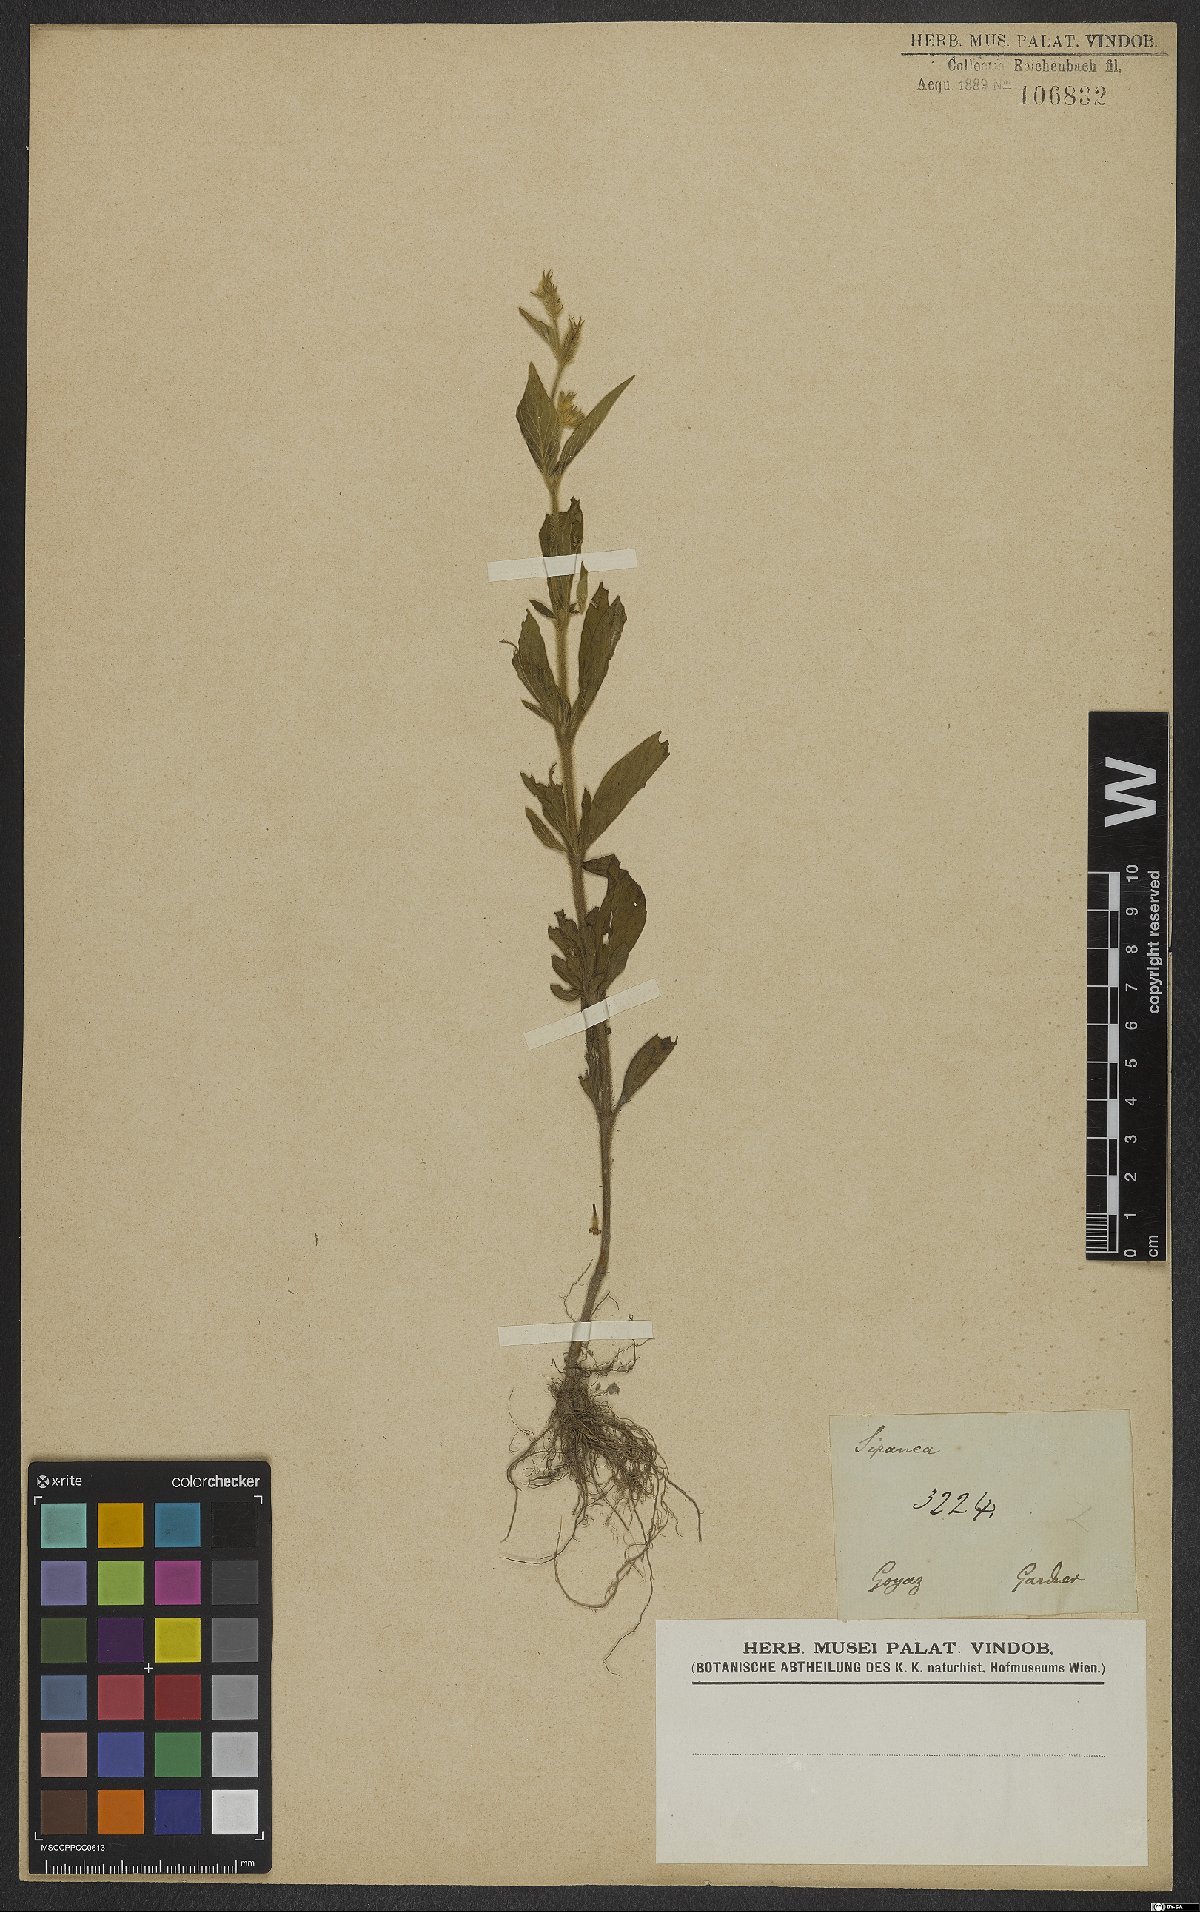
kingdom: Plantae
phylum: Tracheophyta
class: Magnoliopsida
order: Gentianales
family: Rubiaceae
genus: Sipanea
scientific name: Sipanea
